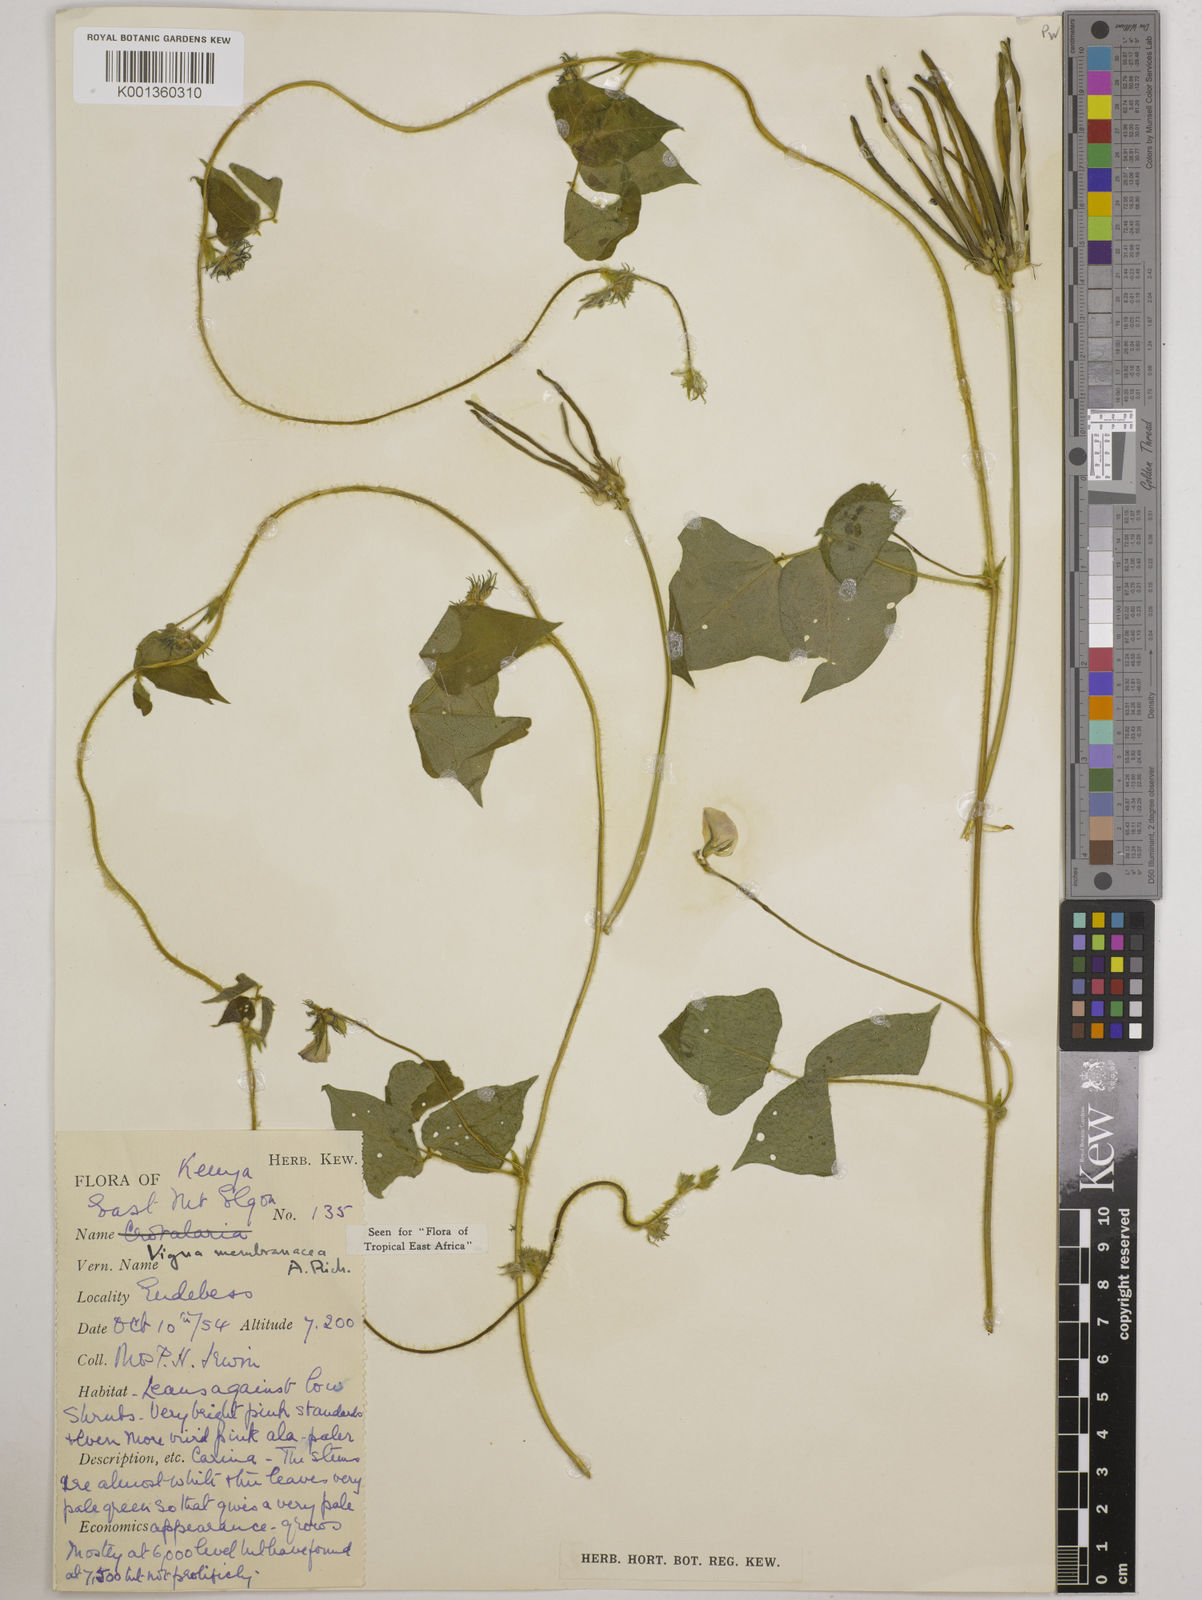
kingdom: Plantae
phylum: Tracheophyta
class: Magnoliopsida
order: Fabales
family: Fabaceae
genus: Vigna
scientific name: Vigna membranacea
